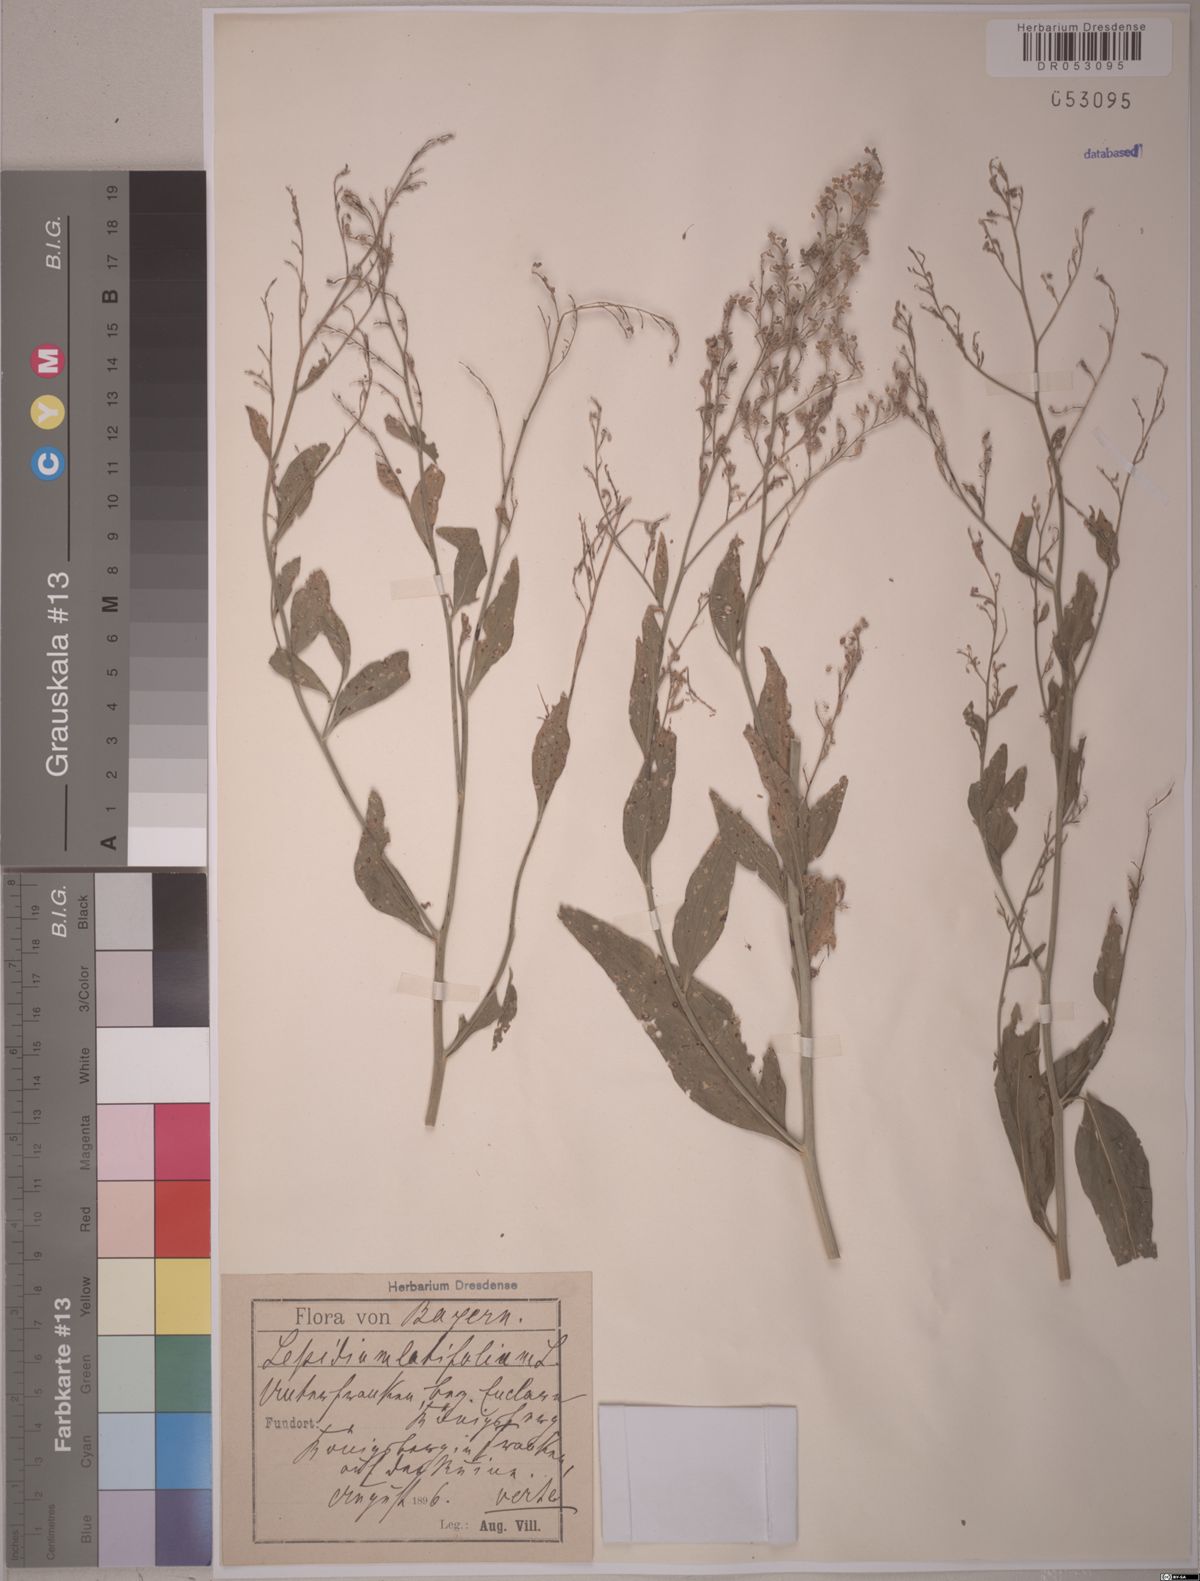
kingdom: Plantae
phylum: Tracheophyta
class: Magnoliopsida
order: Brassicales
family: Brassicaceae
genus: Lepidium
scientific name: Lepidium latifolium
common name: Dittander
